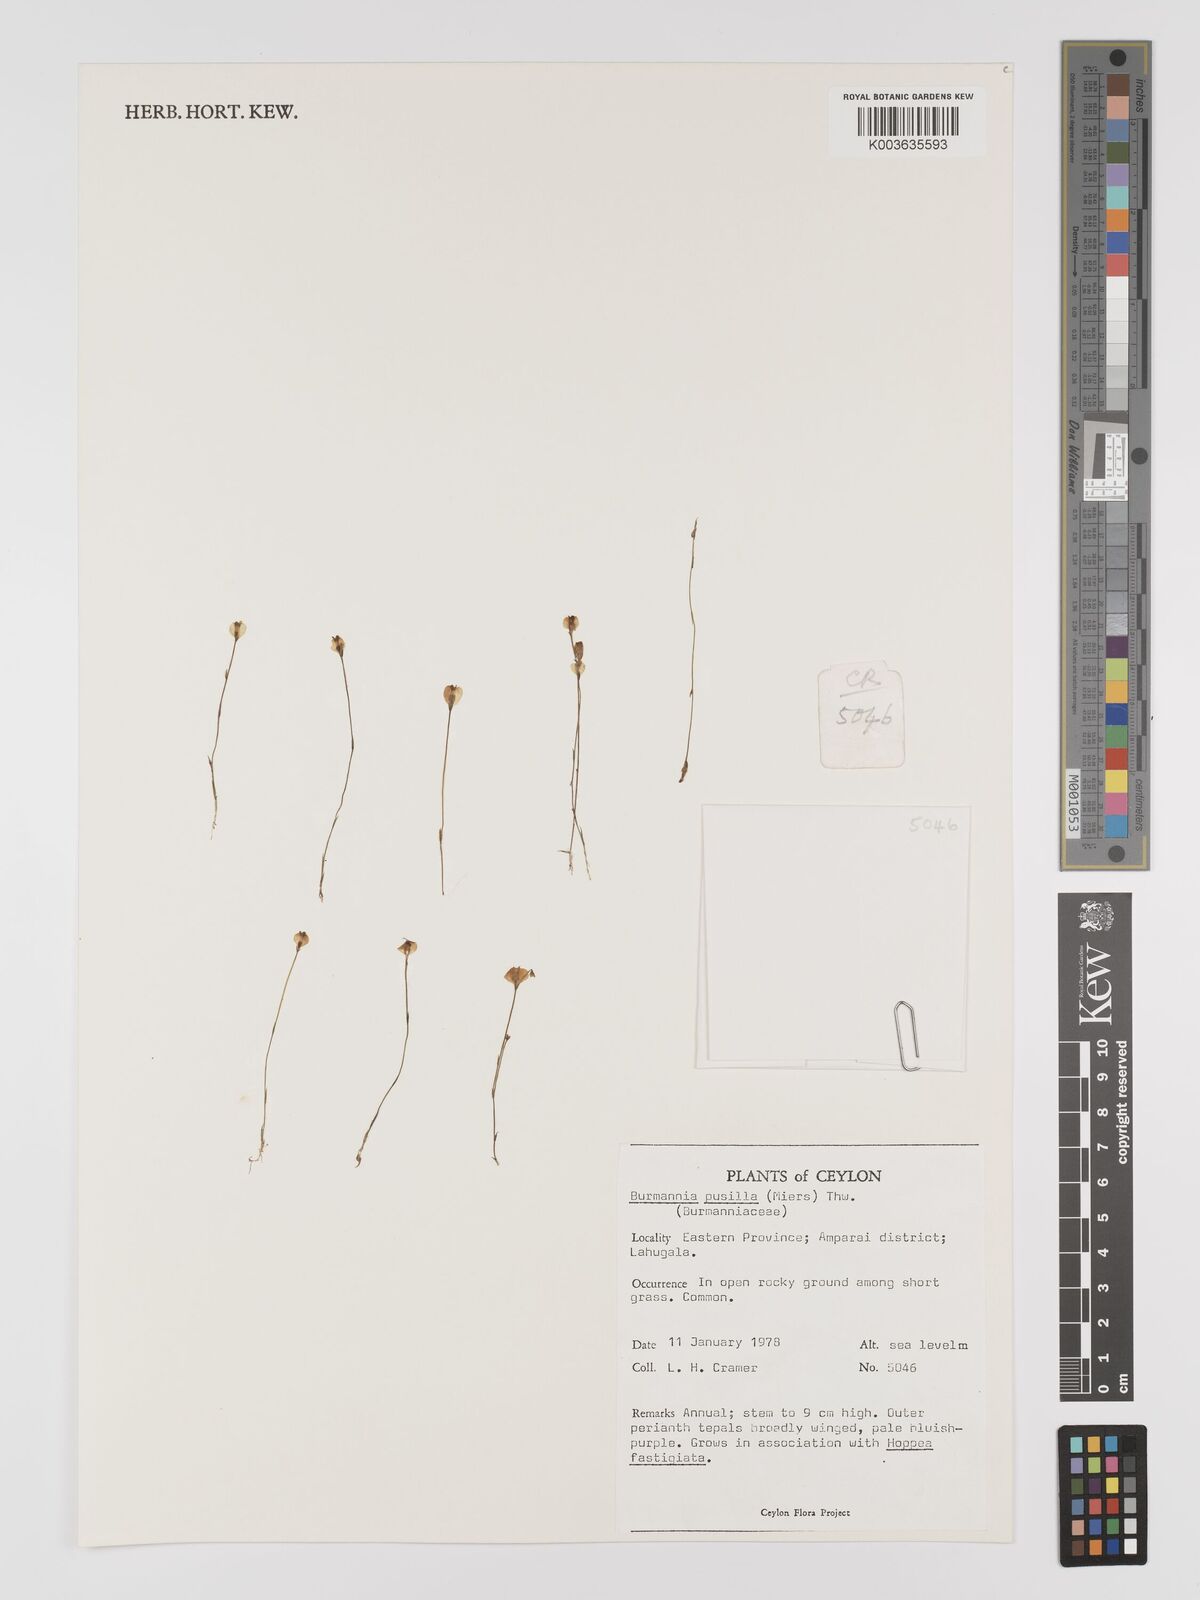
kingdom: Plantae
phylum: Tracheophyta
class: Liliopsida
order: Dioscoreales
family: Burmanniaceae
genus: Burmannia
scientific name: Burmannia pusilla
